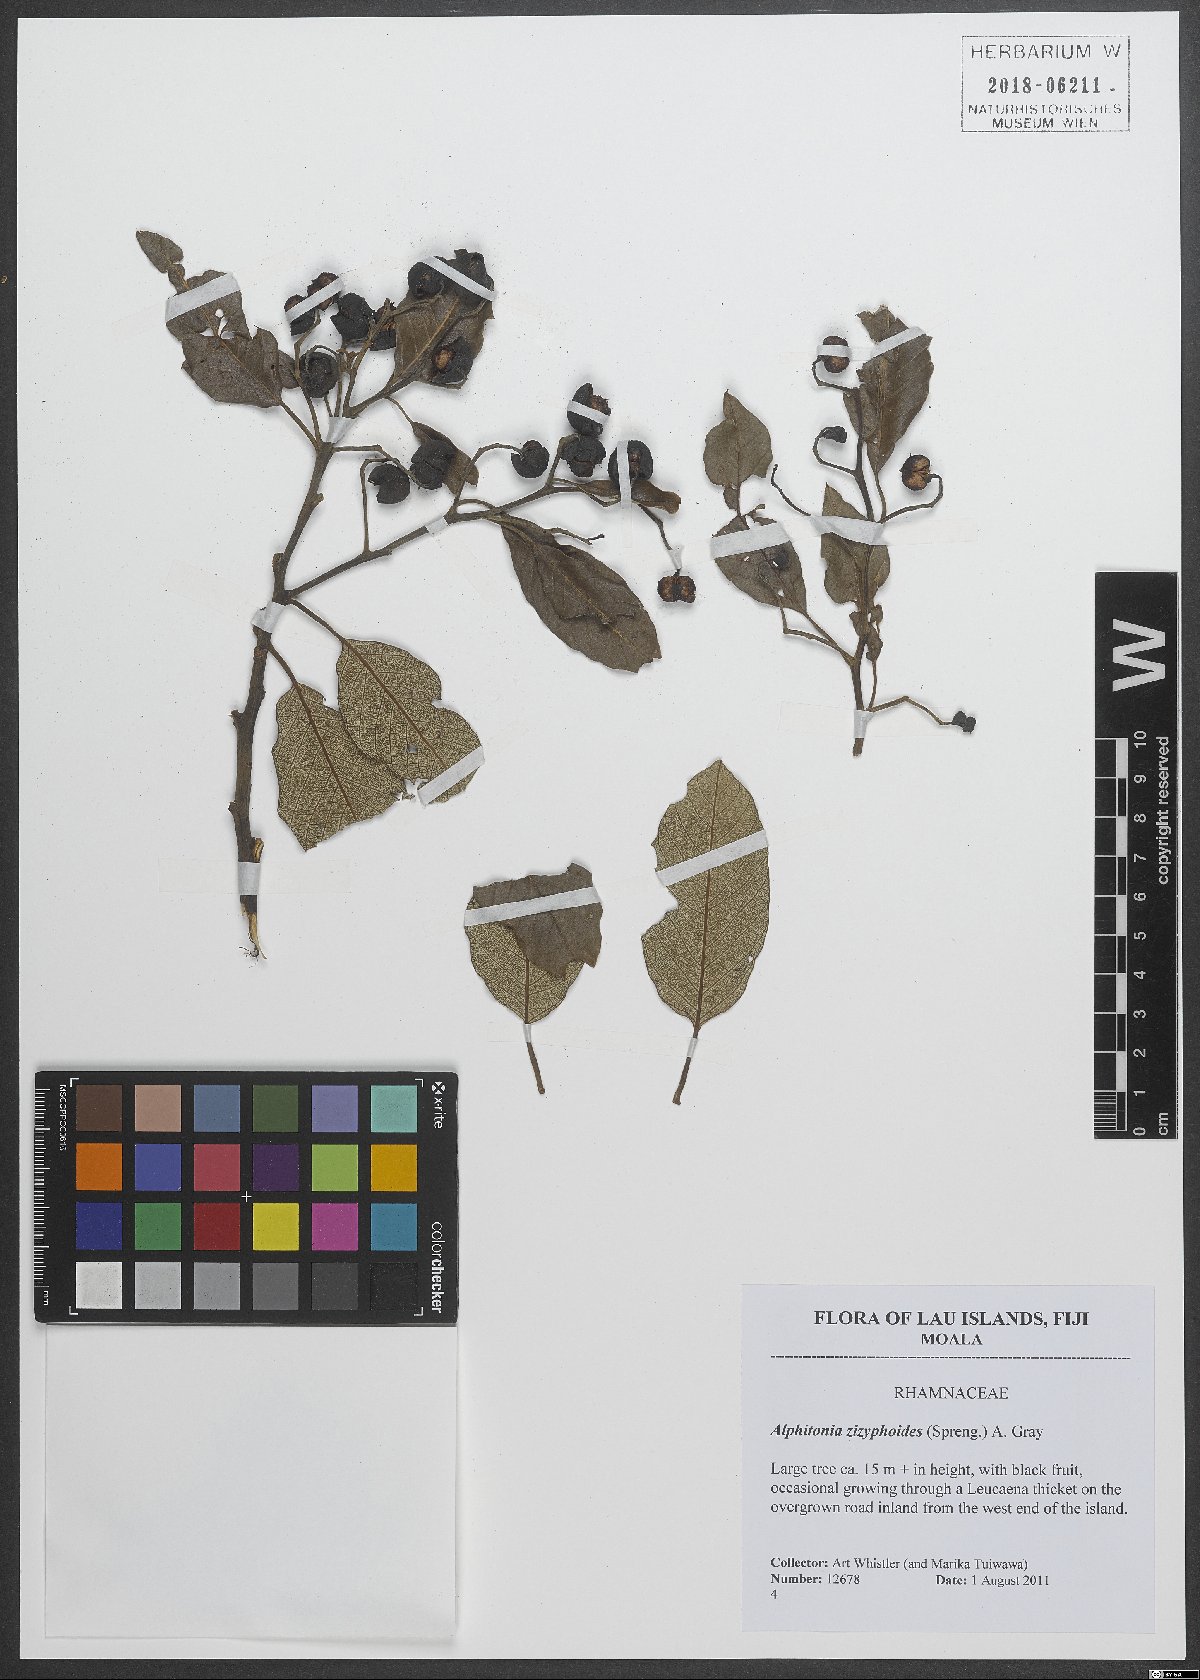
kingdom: Plantae
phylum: Tracheophyta
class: Magnoliopsida
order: Rosales
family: Rhamnaceae
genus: Alphitonia
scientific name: Alphitonia zizyphoides
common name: Toi
